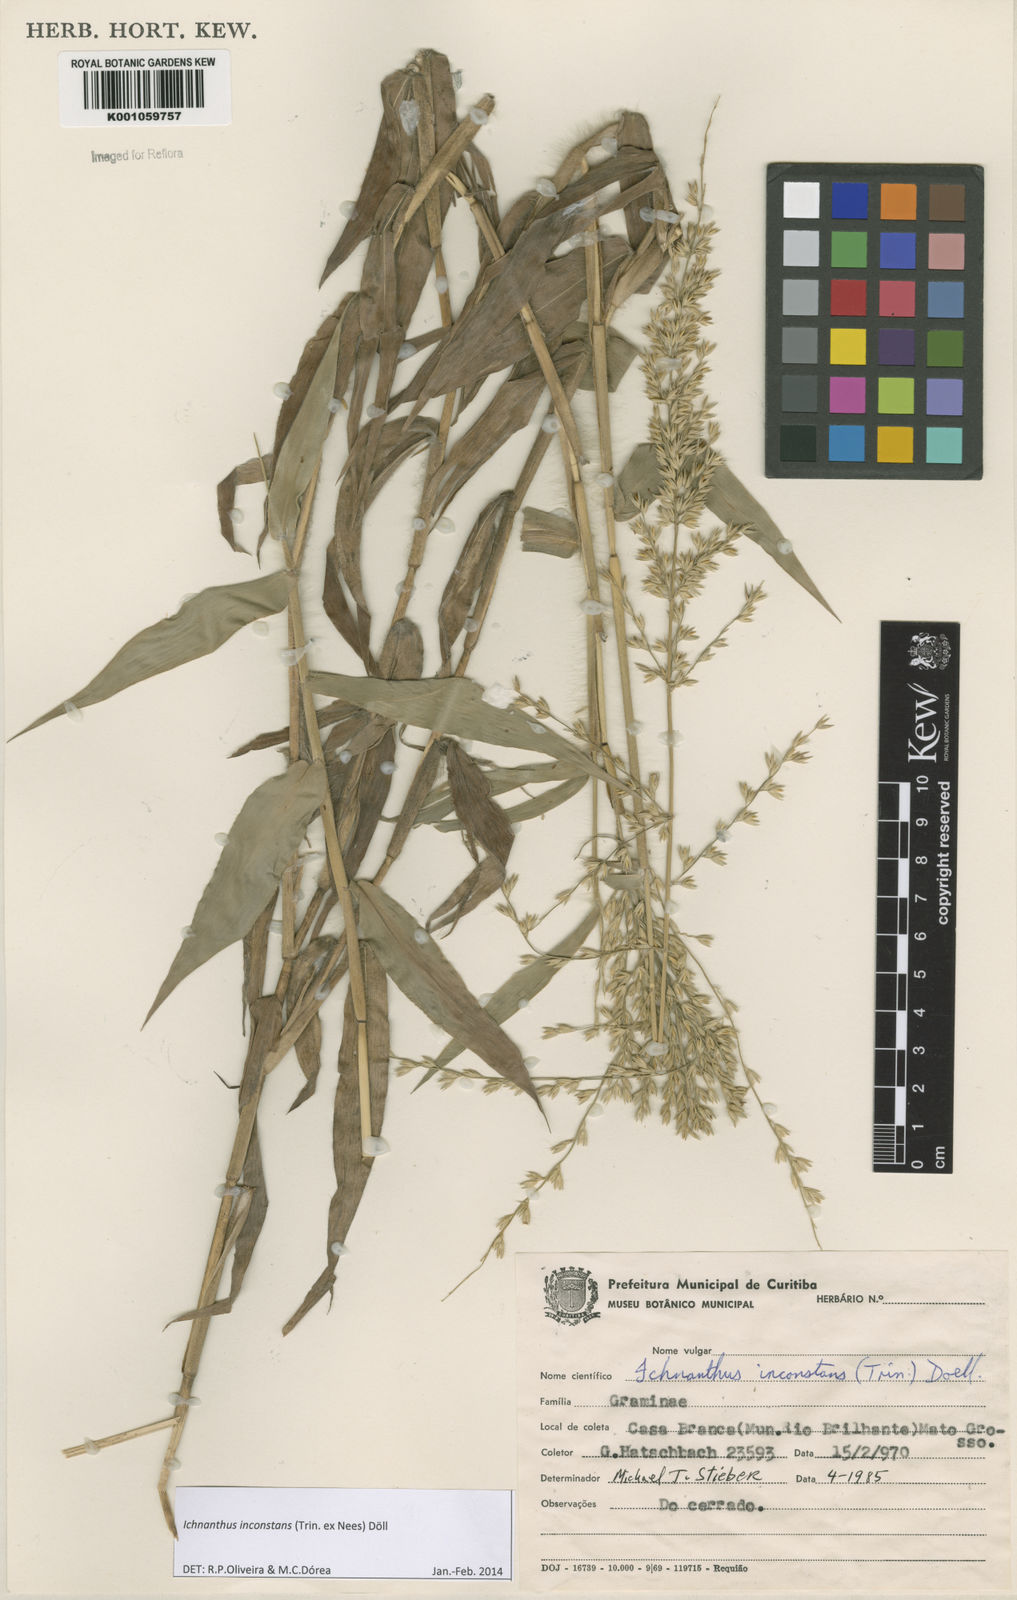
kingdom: Plantae
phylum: Tracheophyta
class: Liliopsida
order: Poales
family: Poaceae
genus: Ichnanthus
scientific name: Ichnanthus
